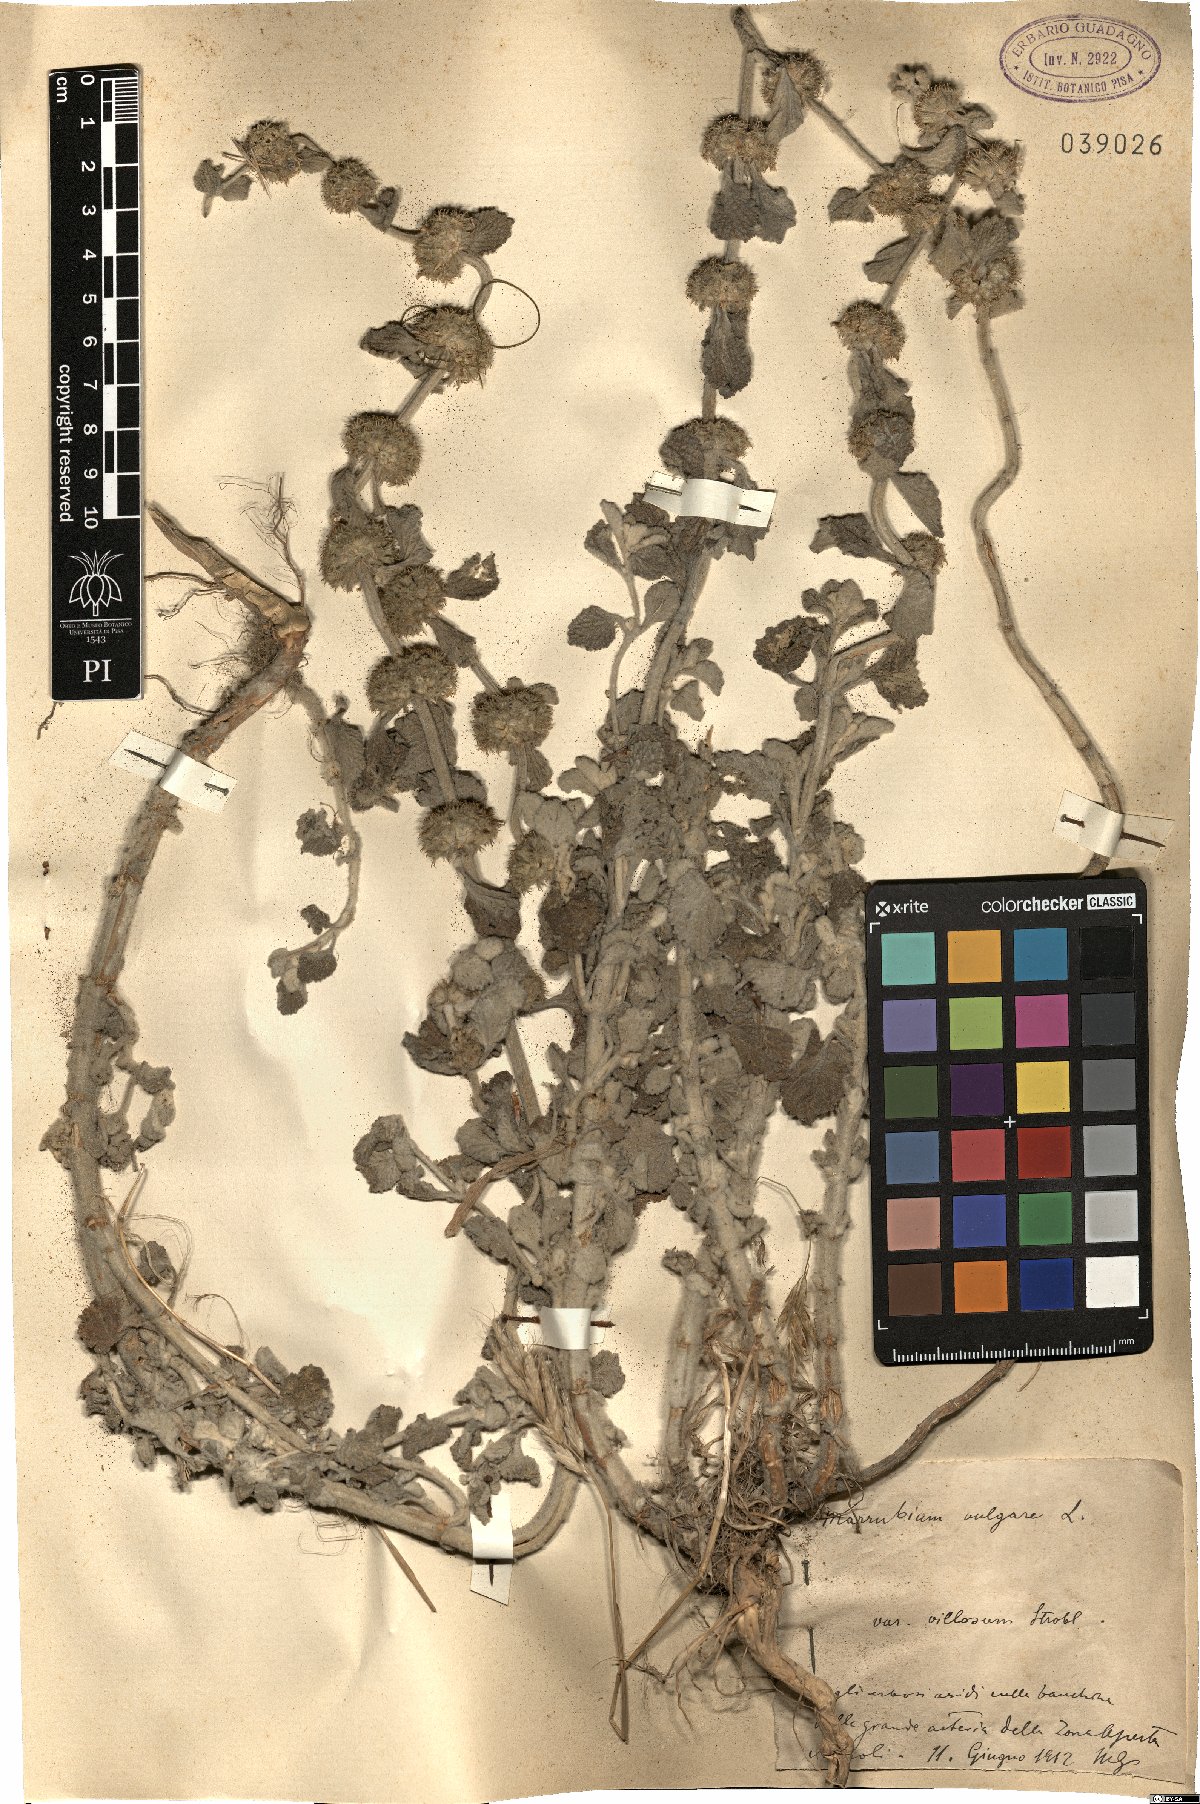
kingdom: Plantae
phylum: Tracheophyta
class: Magnoliopsida
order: Lamiales
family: Lamiaceae
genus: Marrubium
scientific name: Marrubium vulgare
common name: Horehound
